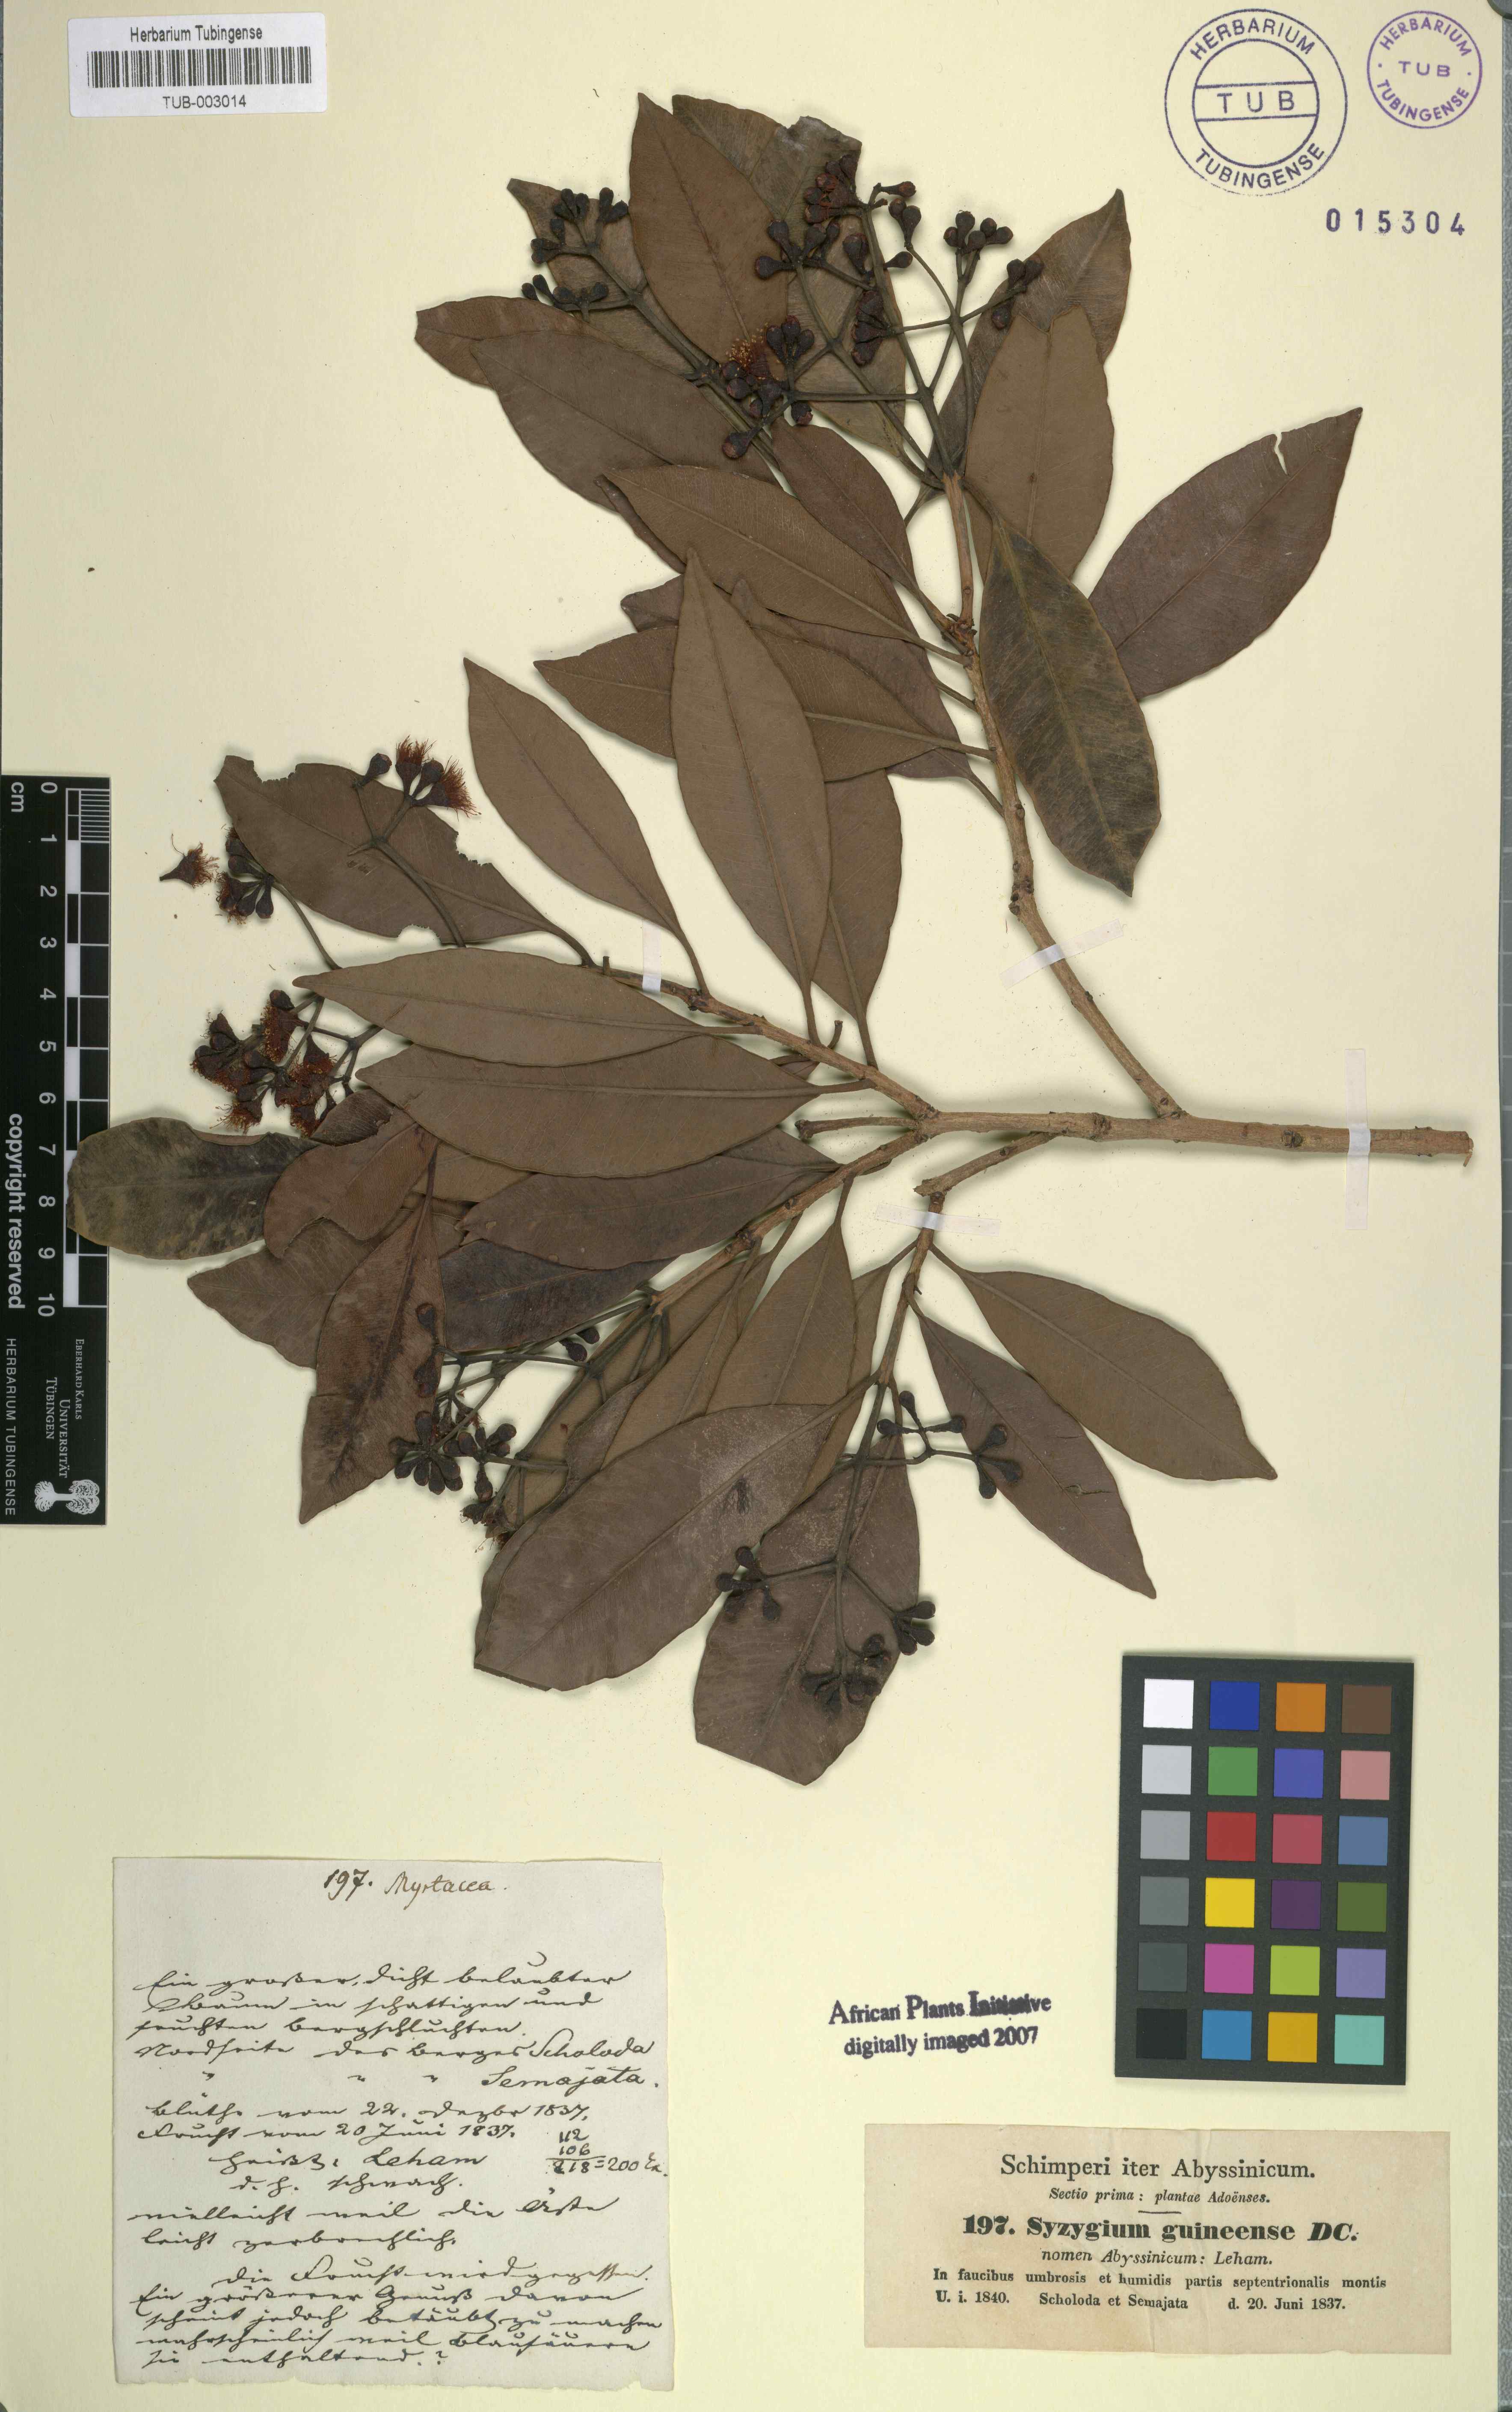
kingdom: Plantae
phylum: Tracheophyta
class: Magnoliopsida
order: Myrtales
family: Myrtaceae
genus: Syzygium
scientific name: Syzygium guineense
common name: Water-pear
